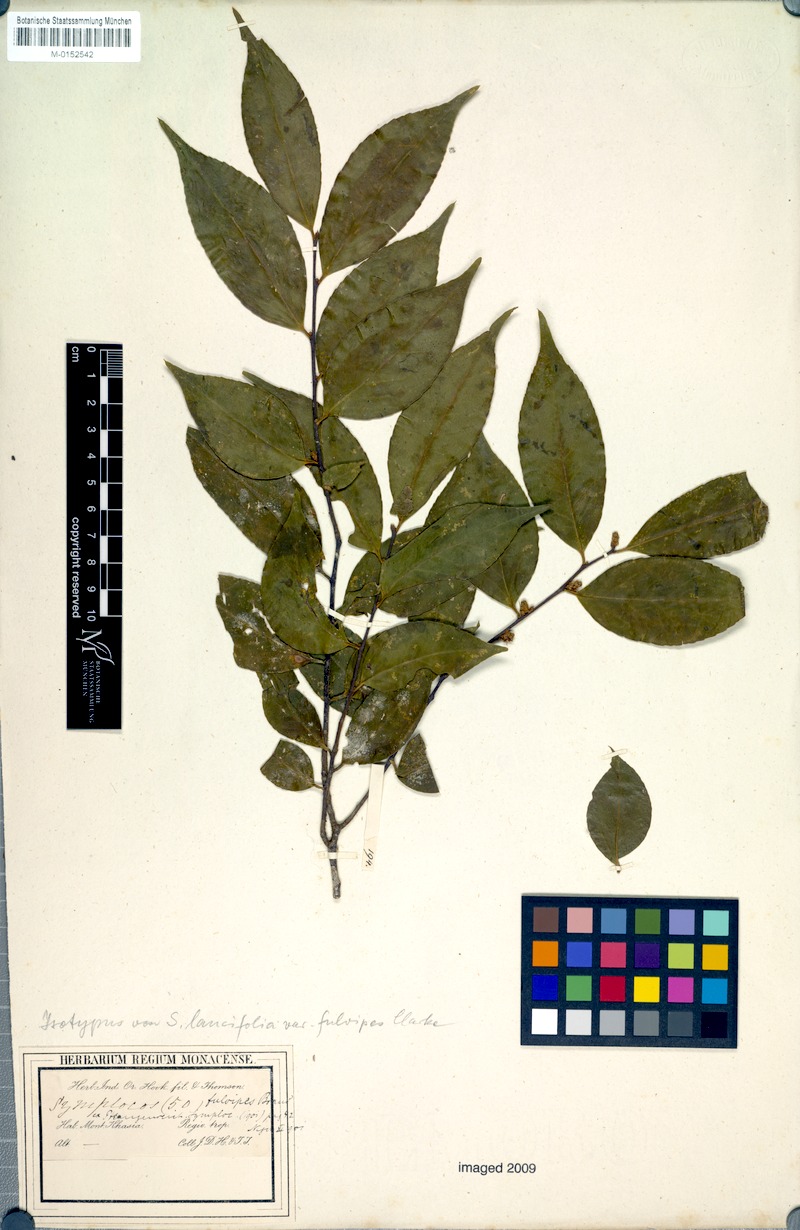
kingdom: Plantae
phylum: Tracheophyta
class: Magnoliopsida
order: Ericales
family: Symplocaceae
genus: Symplocos
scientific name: Symplocos lancifolia
